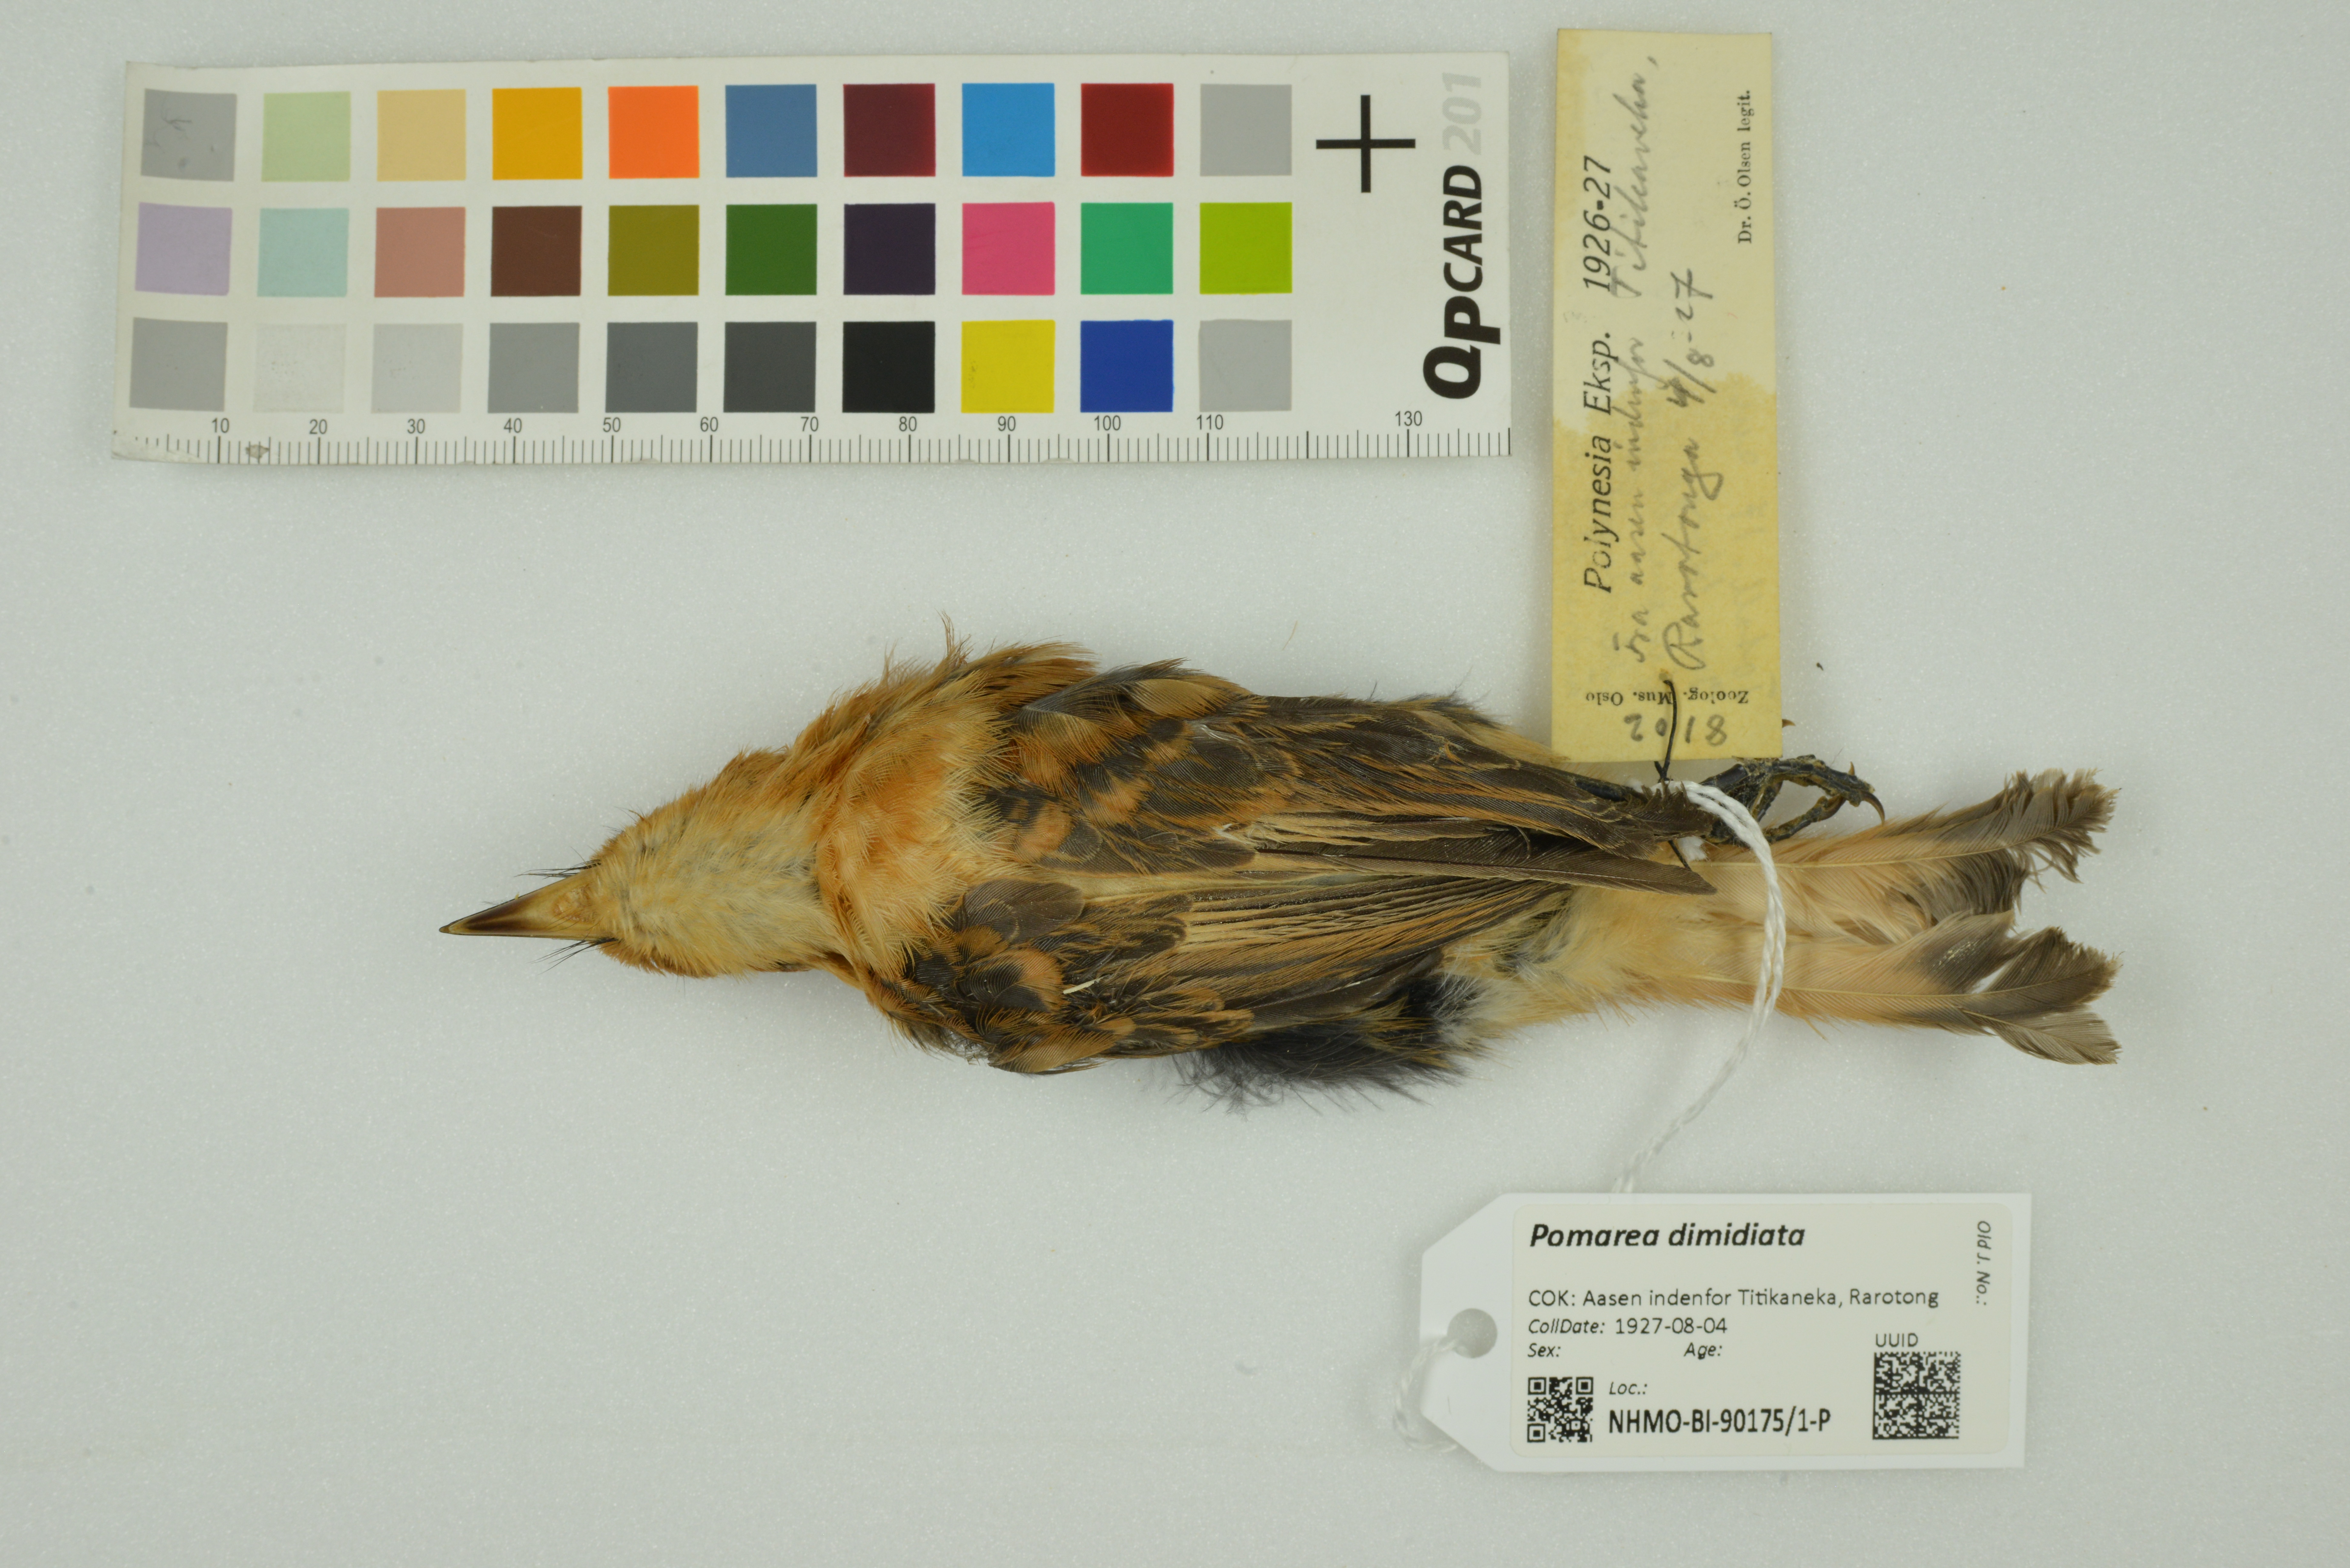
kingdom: Animalia
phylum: Chordata
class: Aves
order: Passeriformes
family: Monarchidae
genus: Pomarea
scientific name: Pomarea dimidiata
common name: Rarotonga monarch
